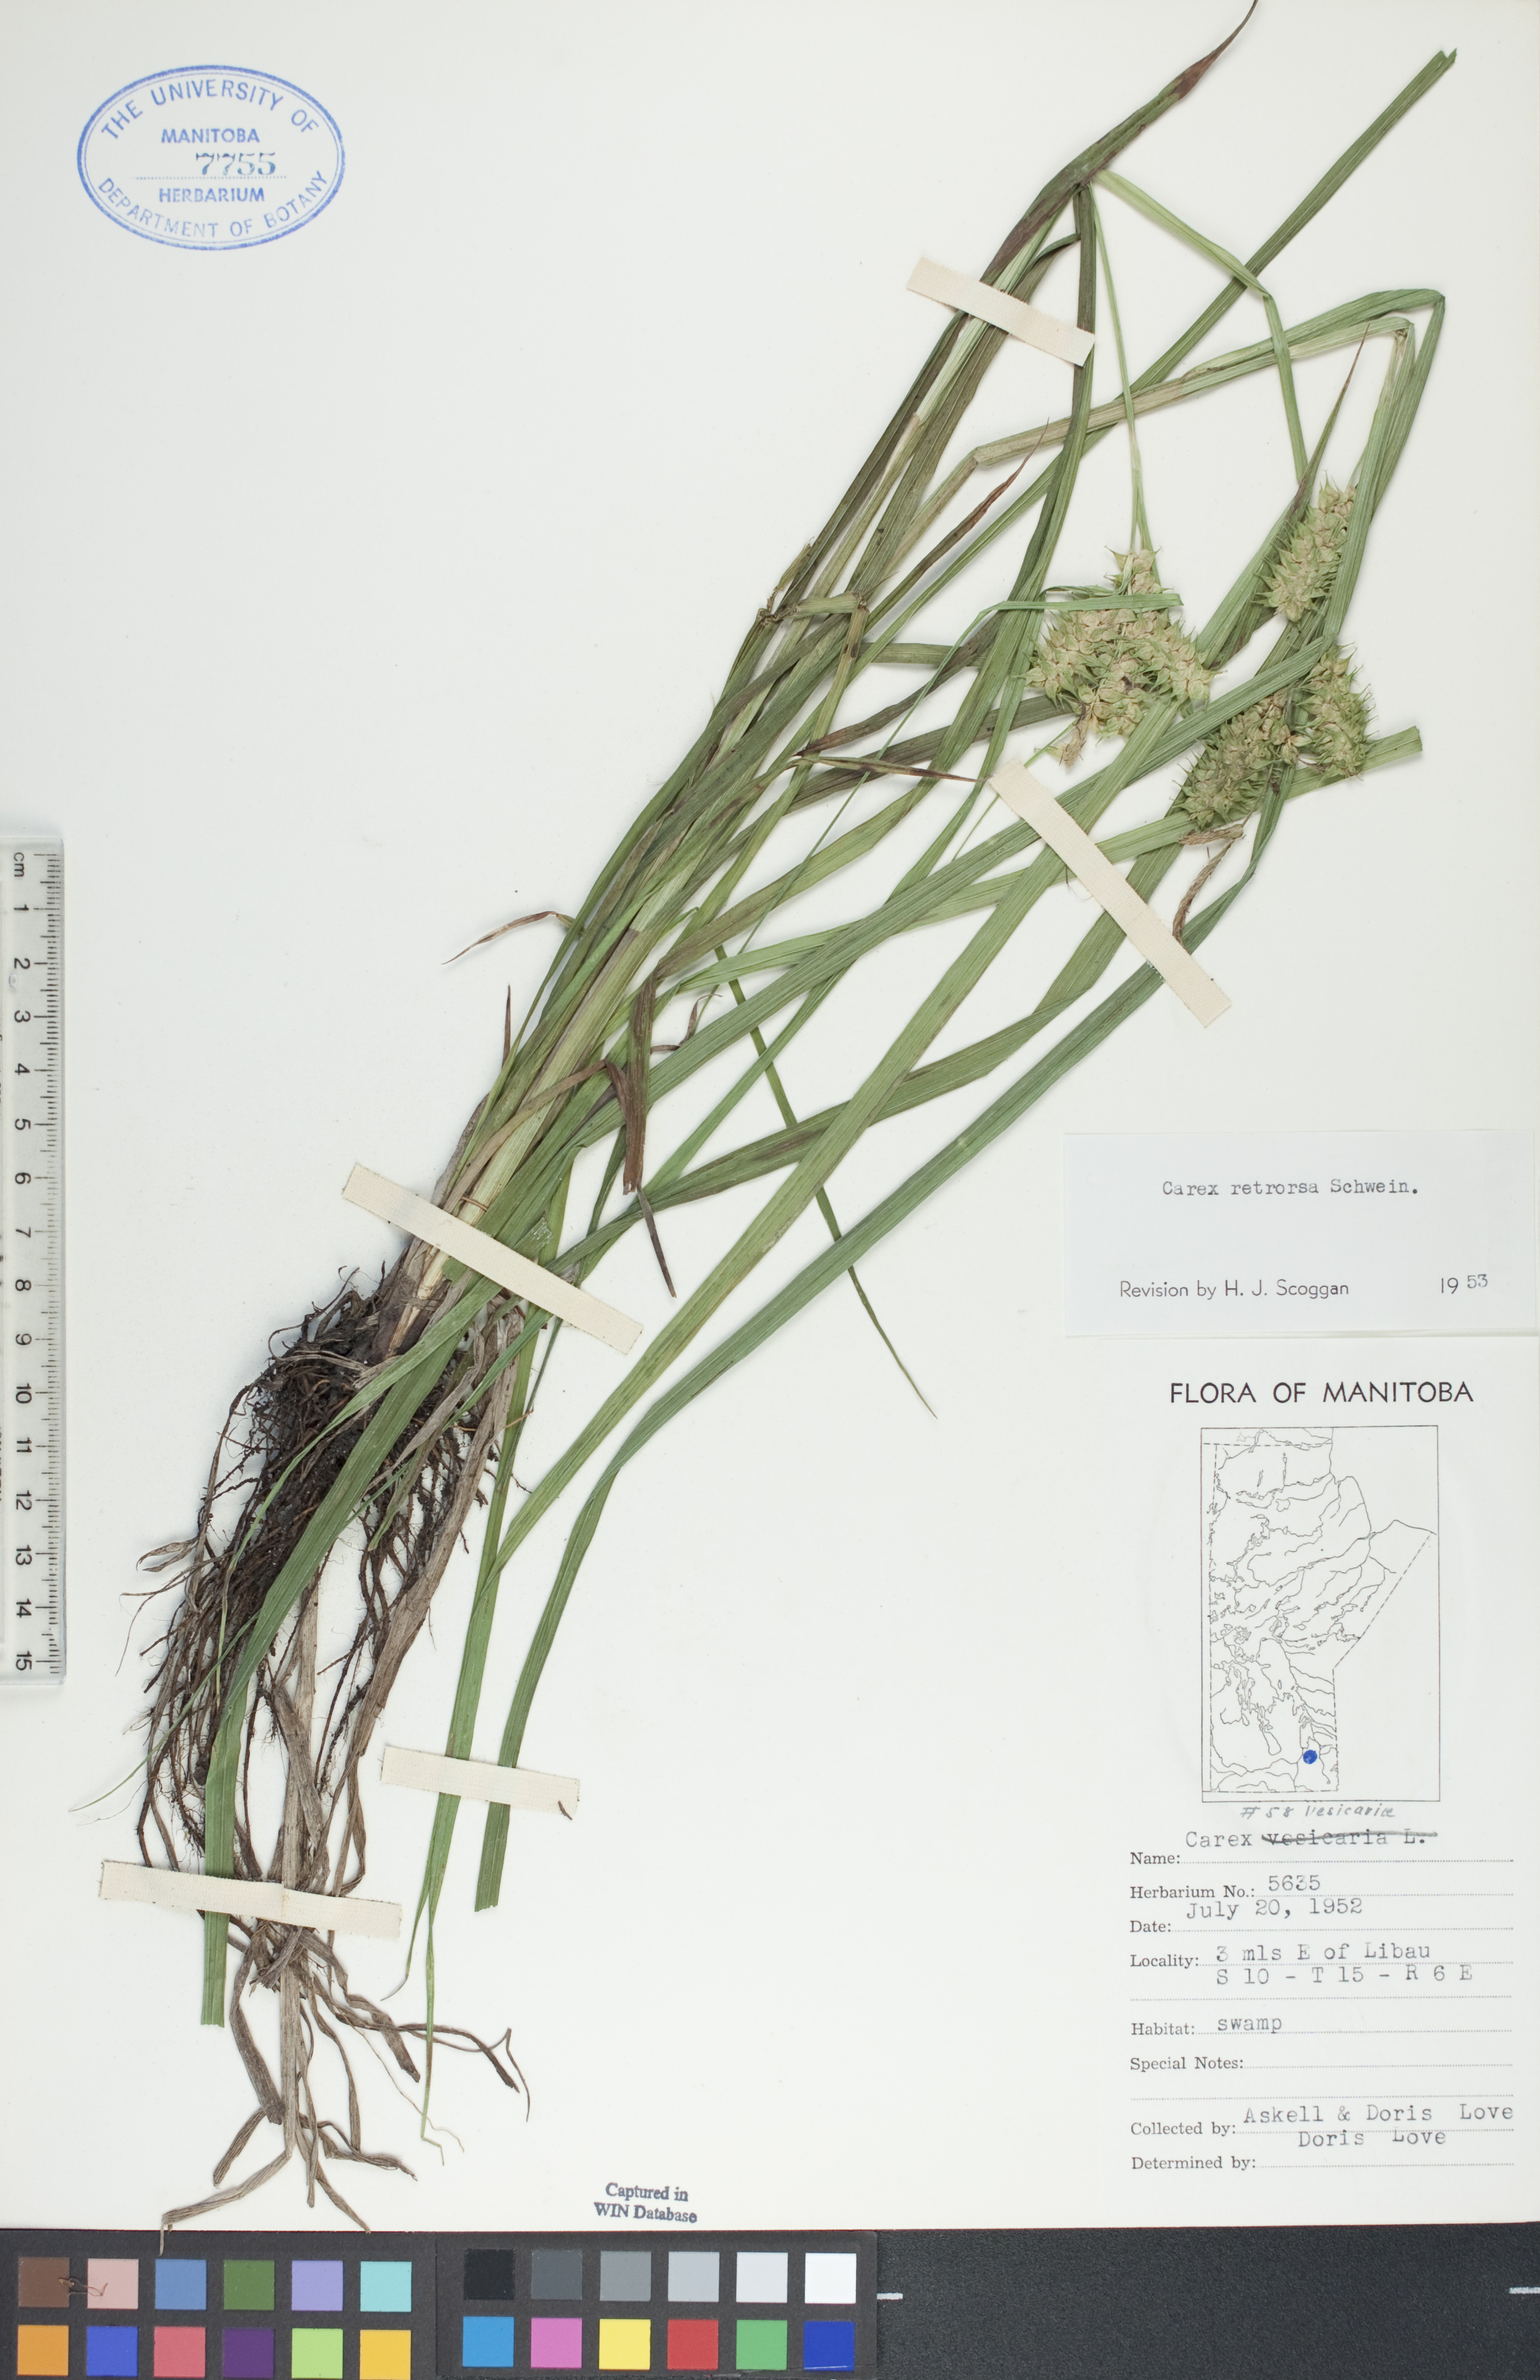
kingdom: Plantae
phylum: Tracheophyta
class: Liliopsida
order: Poales
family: Cyperaceae
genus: Carex
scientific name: Carex retrorsa
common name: Knot-sheath sedge
